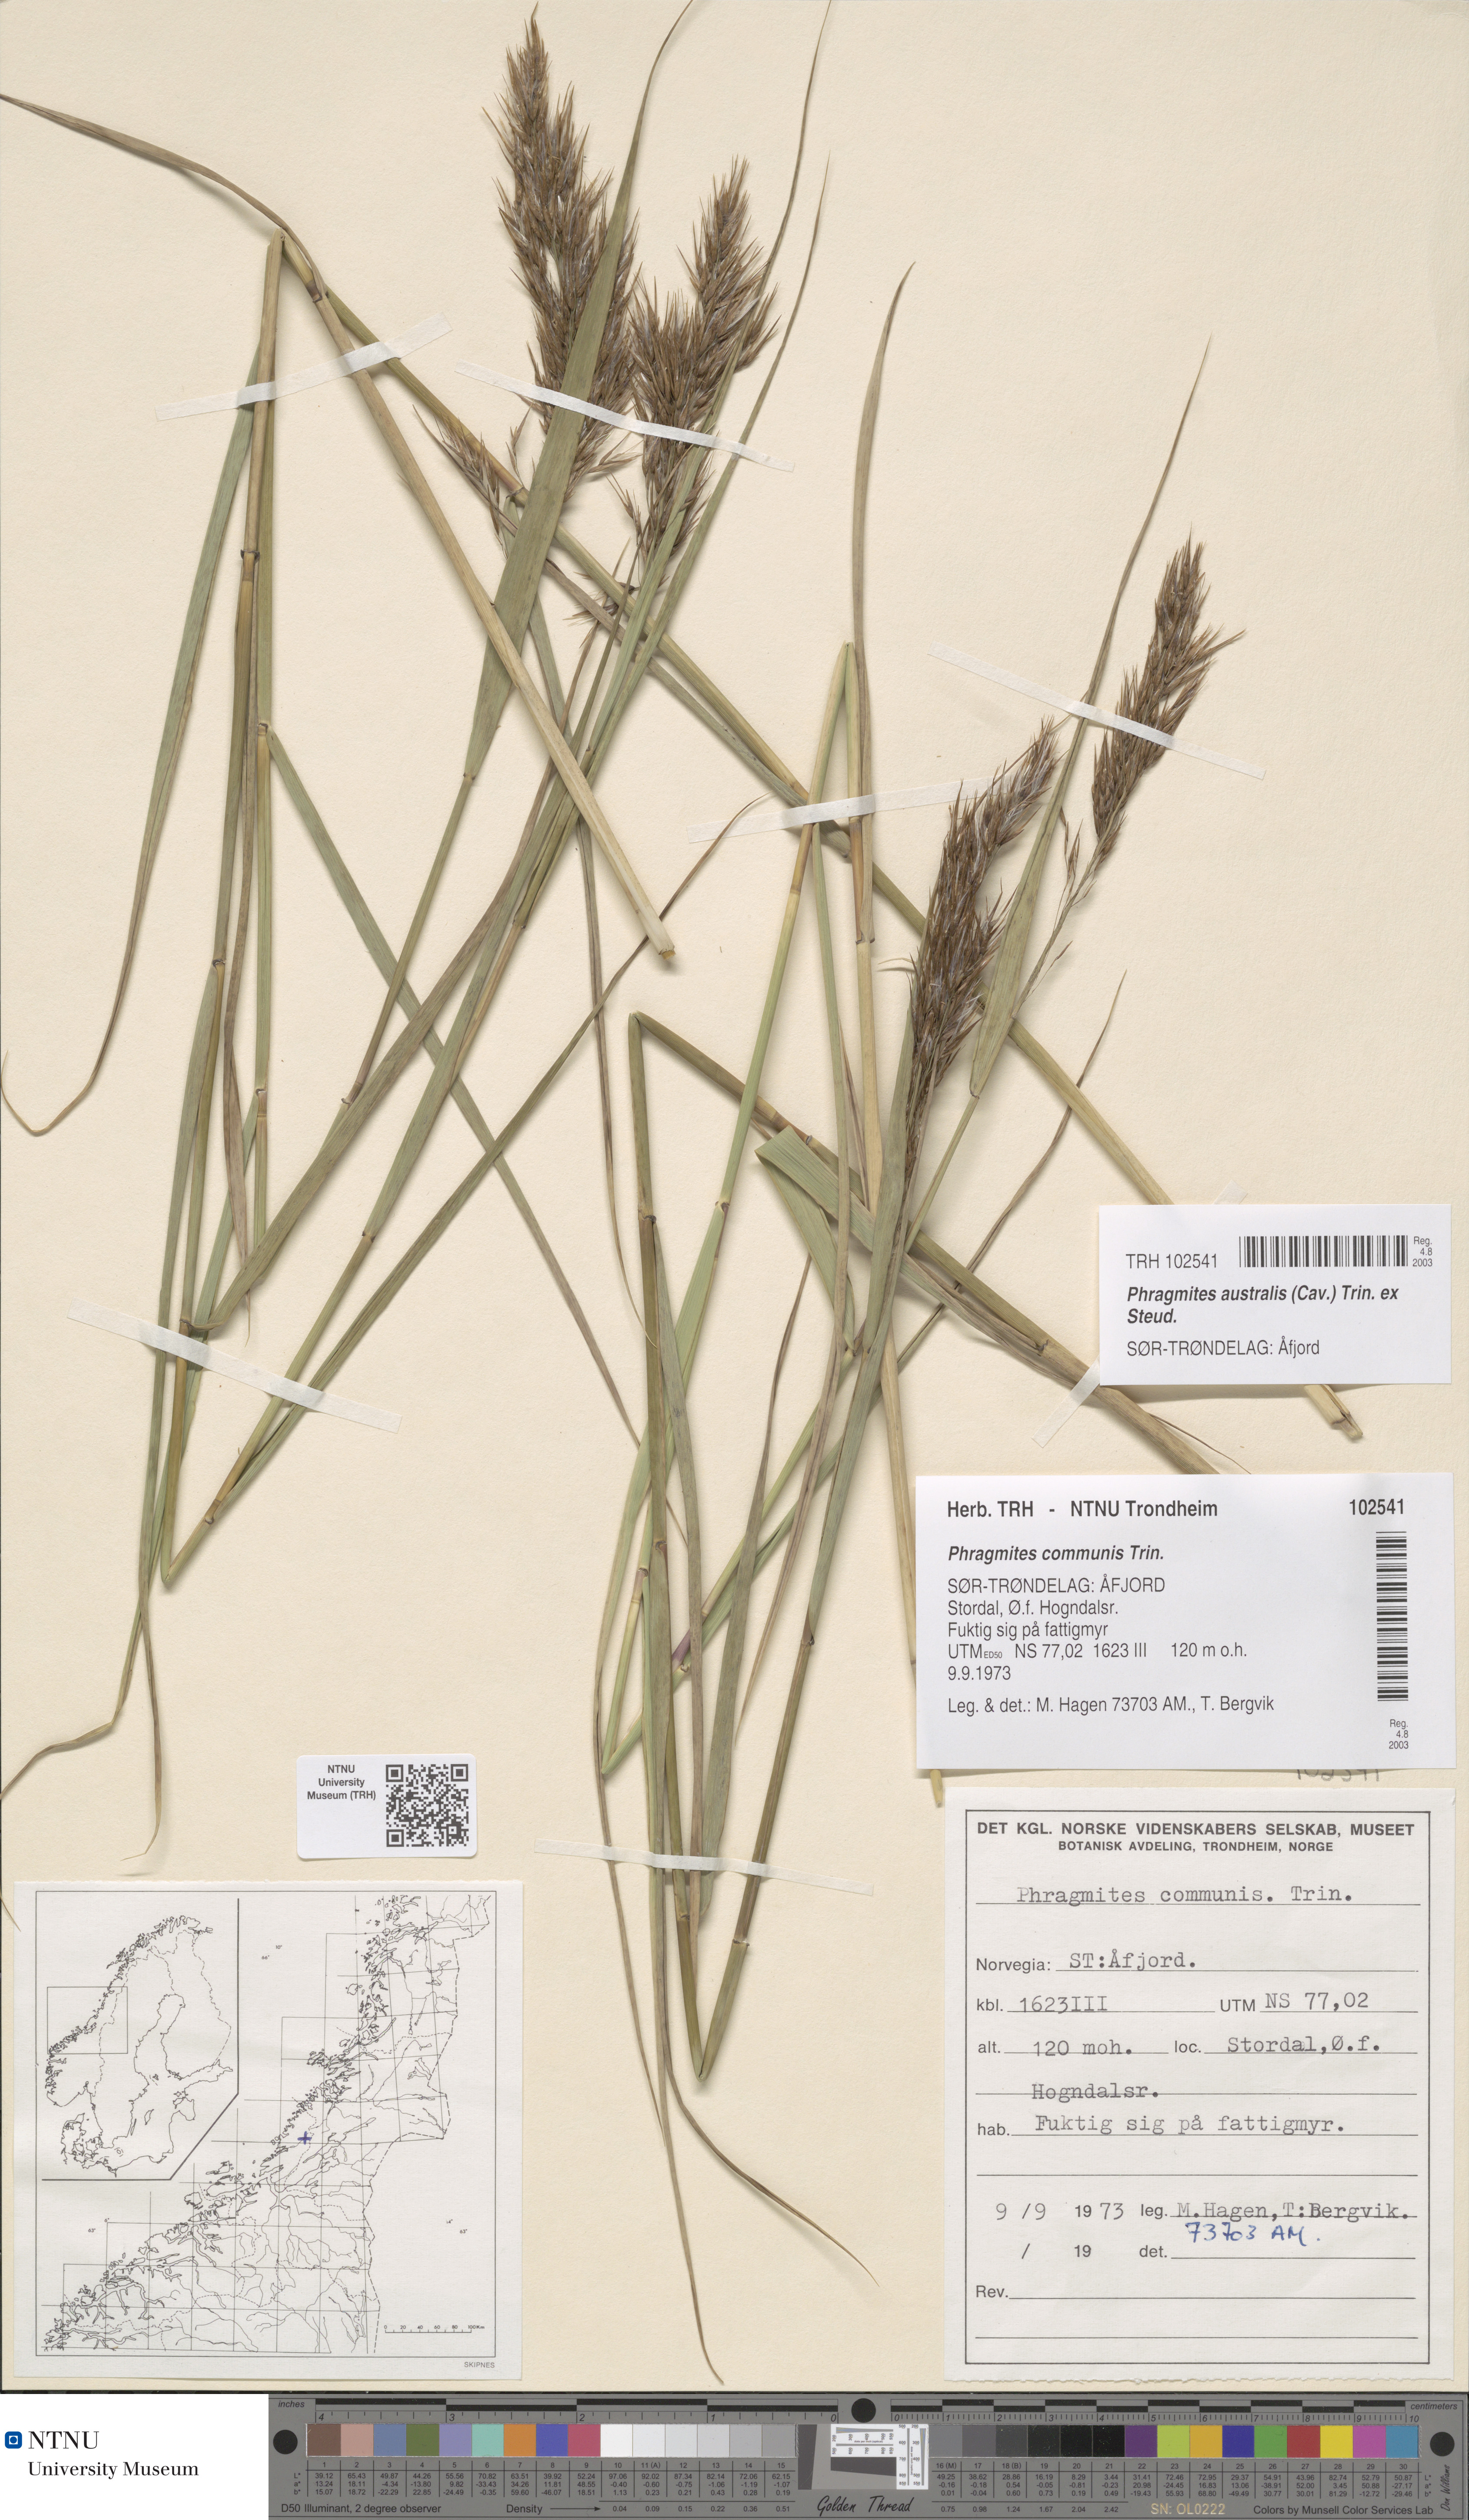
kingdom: Plantae
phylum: Tracheophyta
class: Liliopsida
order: Poales
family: Poaceae
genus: Phragmites
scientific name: Phragmites australis
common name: Common reed
